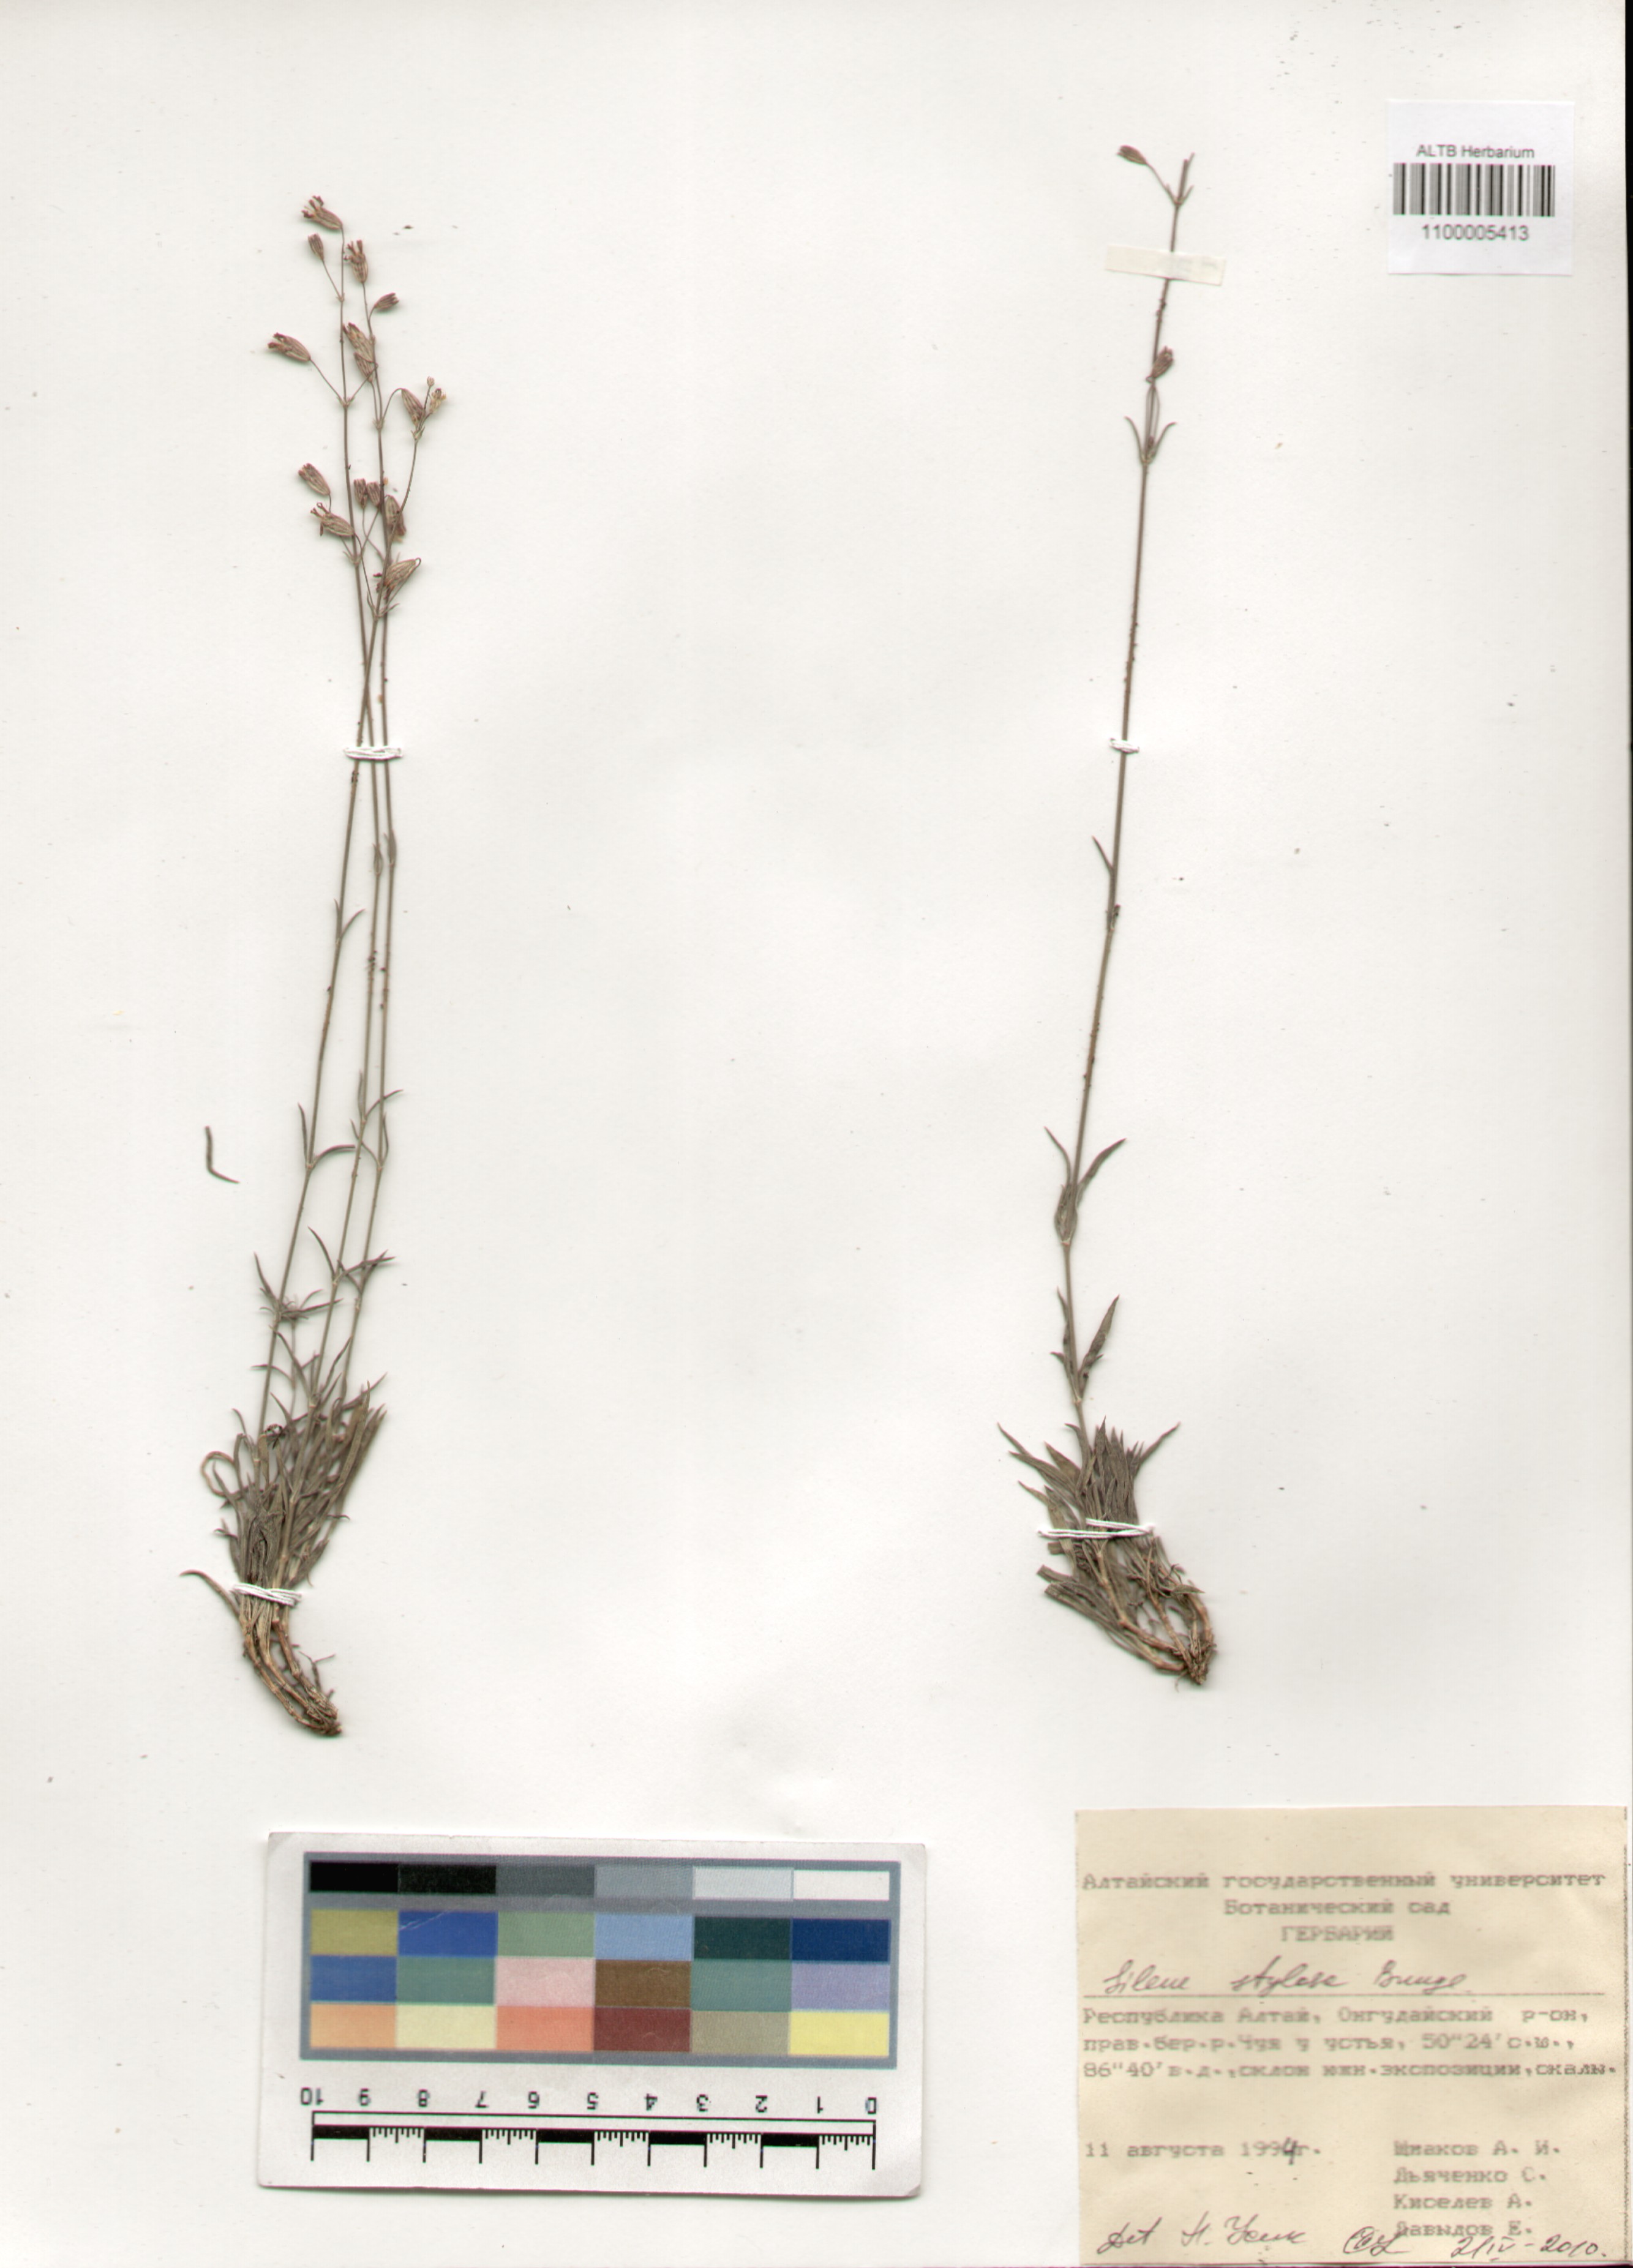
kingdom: Plantae
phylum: Tracheophyta
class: Magnoliopsida
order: Caryophyllales
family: Caryophyllaceae
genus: Silene
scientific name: Silene graminifolia
